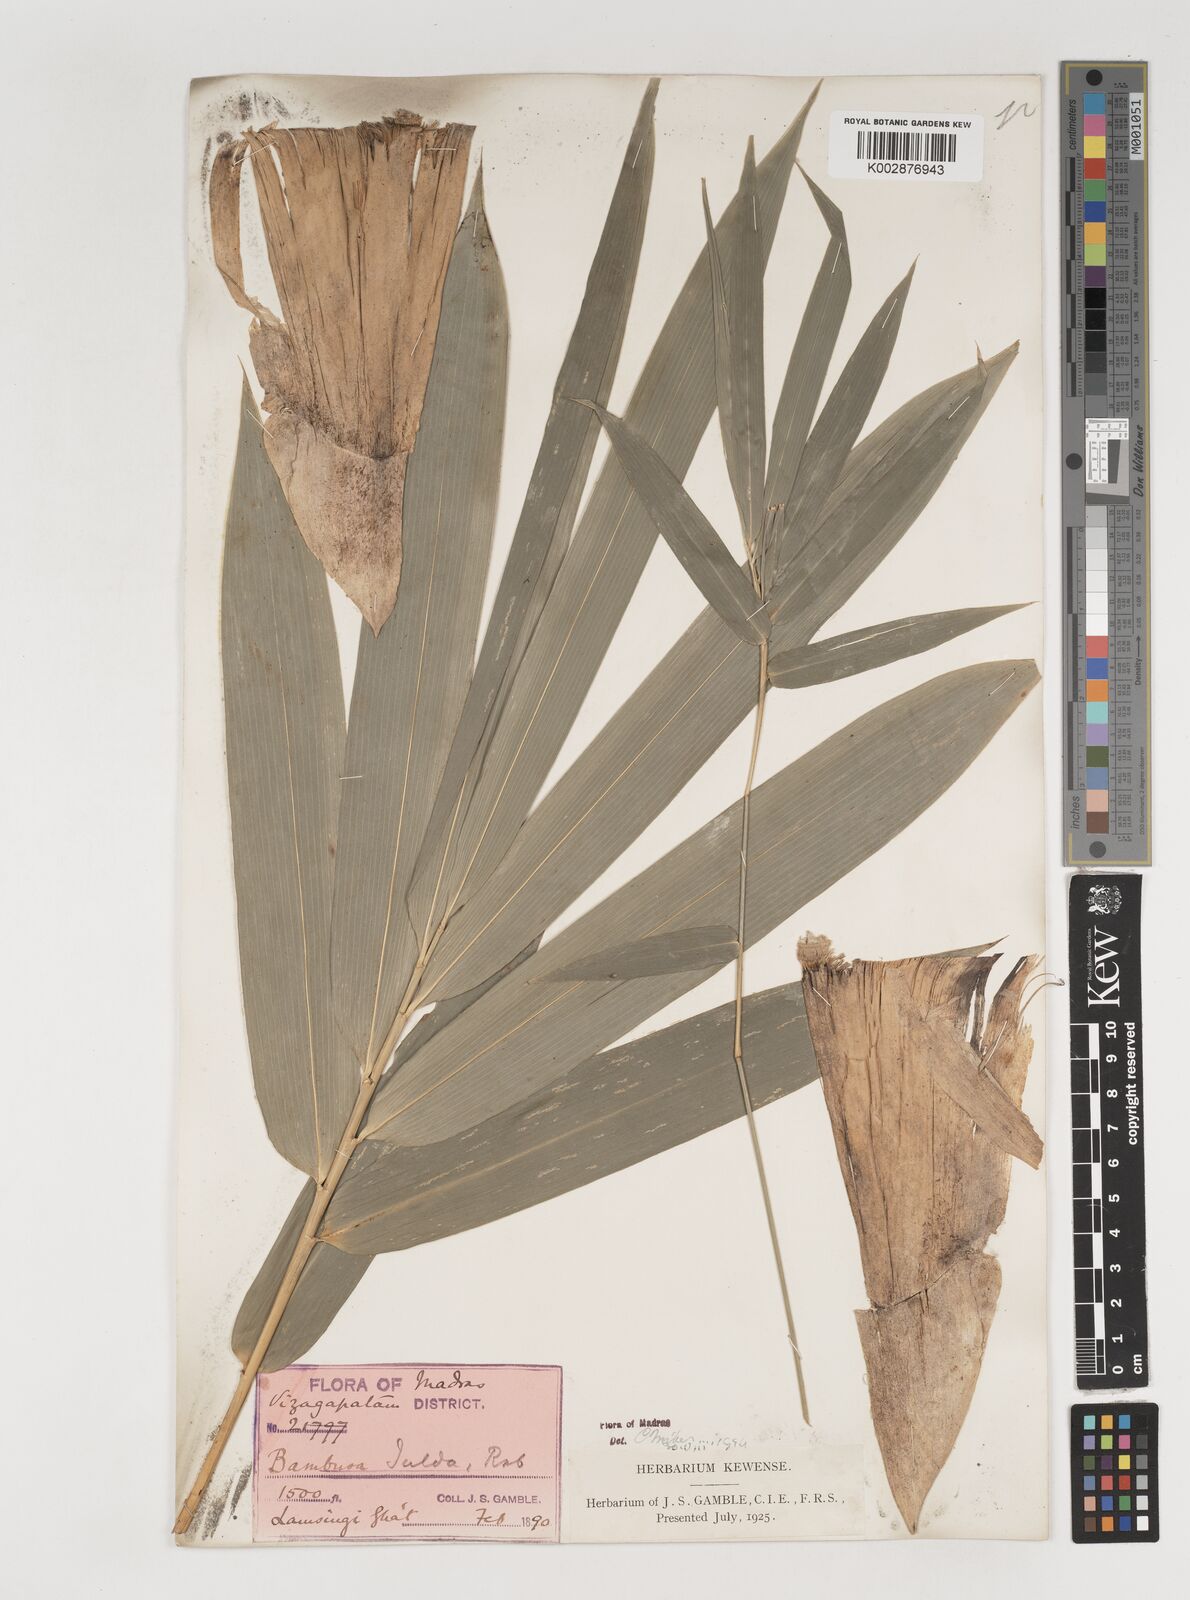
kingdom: Plantae
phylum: Tracheophyta
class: Liliopsida
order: Poales
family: Poaceae
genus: Bambusa
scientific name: Bambusa tulda
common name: Bengal bamboo
